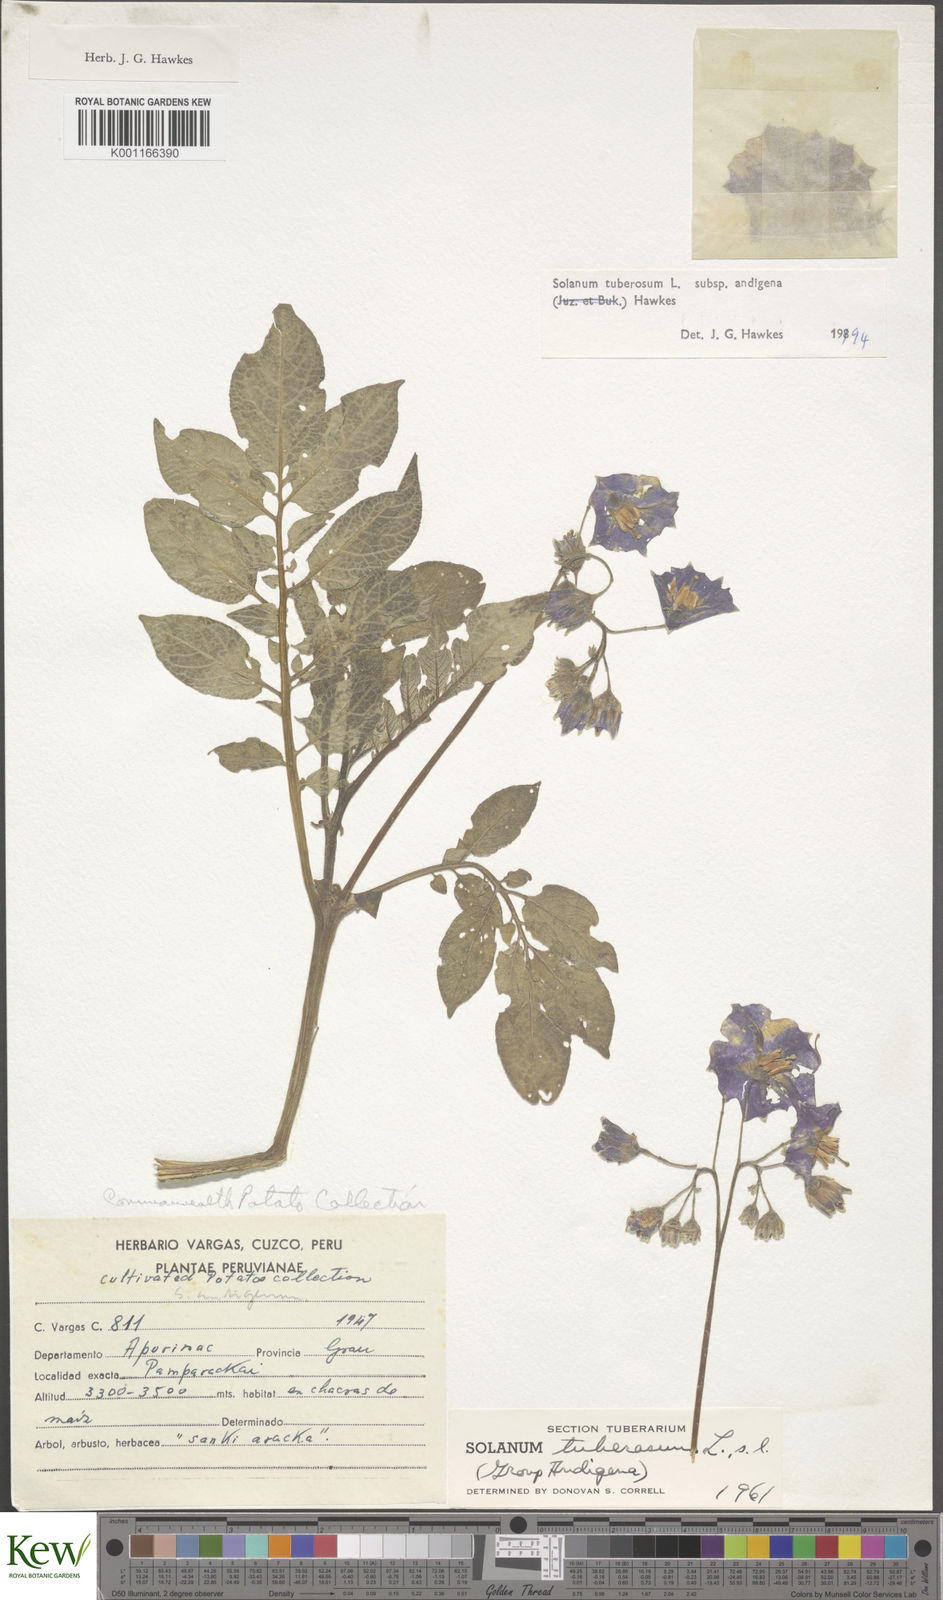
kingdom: Plantae
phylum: Tracheophyta
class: Magnoliopsida
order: Solanales
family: Solanaceae
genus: Solanum
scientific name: Solanum tuberosum
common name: Potato
